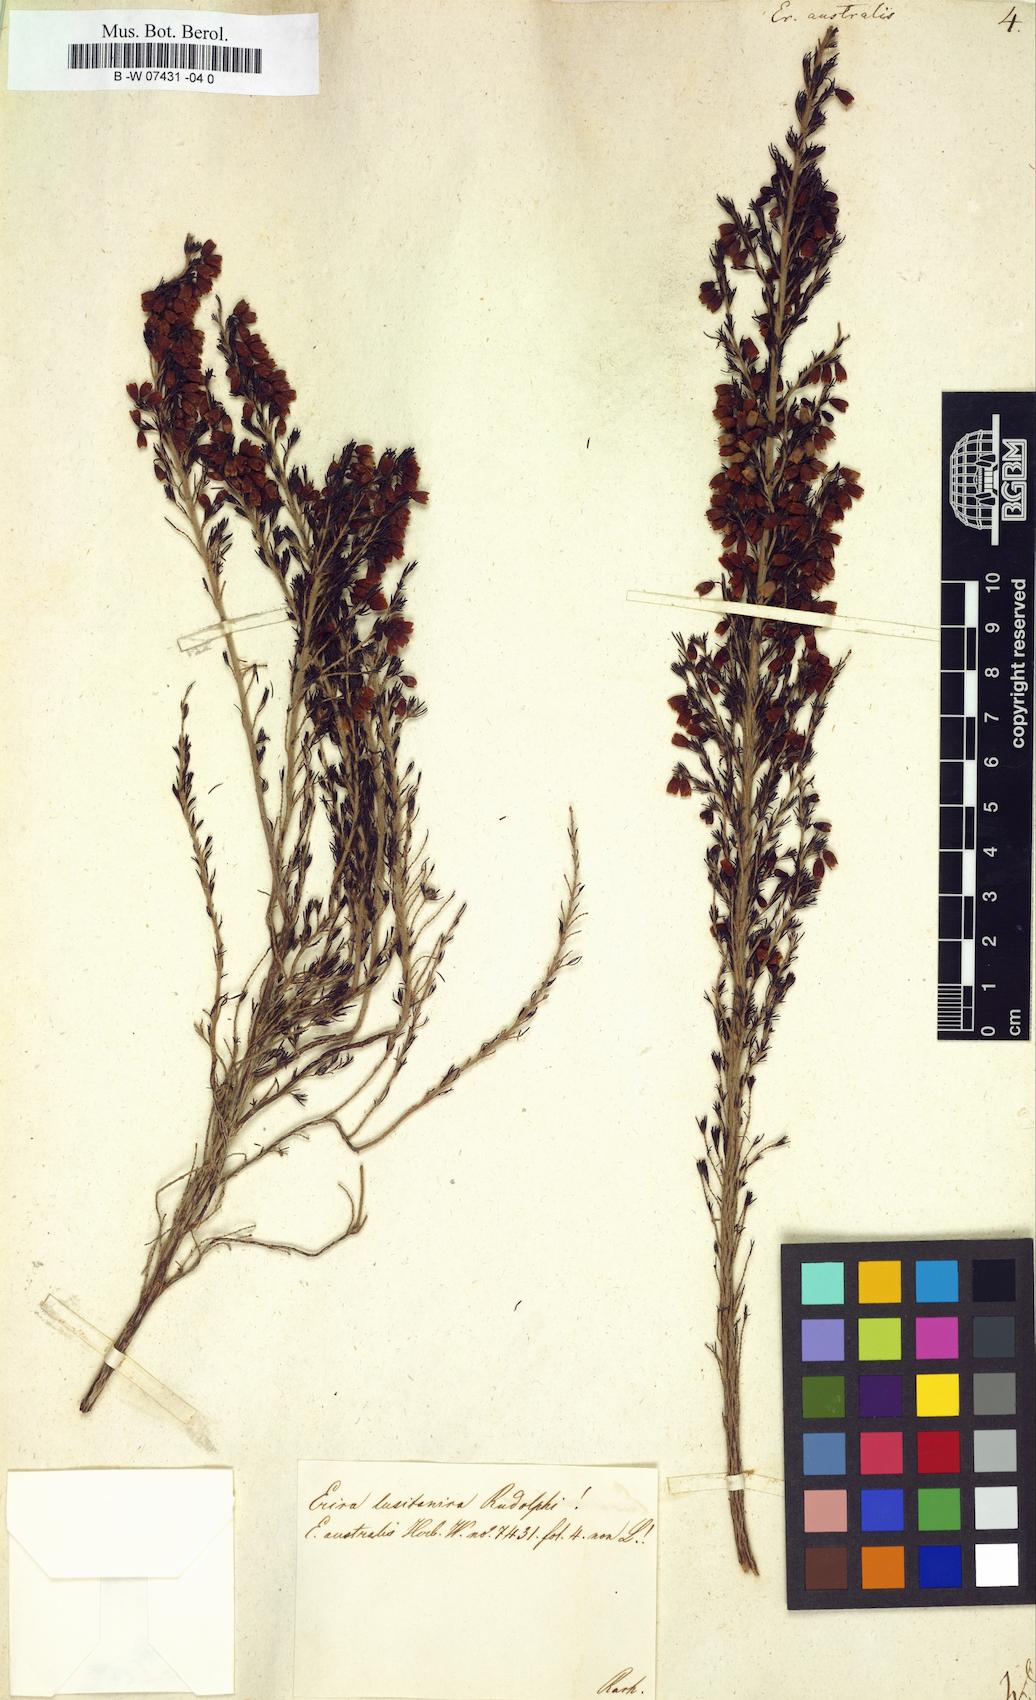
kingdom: Plantae
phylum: Tracheophyta
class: Magnoliopsida
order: Ericales
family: Ericaceae
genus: Erica
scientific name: Erica australis
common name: Spanish heath
